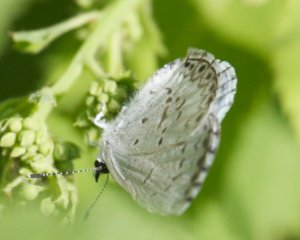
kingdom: Animalia
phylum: Arthropoda
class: Insecta
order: Lepidoptera
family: Lycaenidae
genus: Celastrina
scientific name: Celastrina
